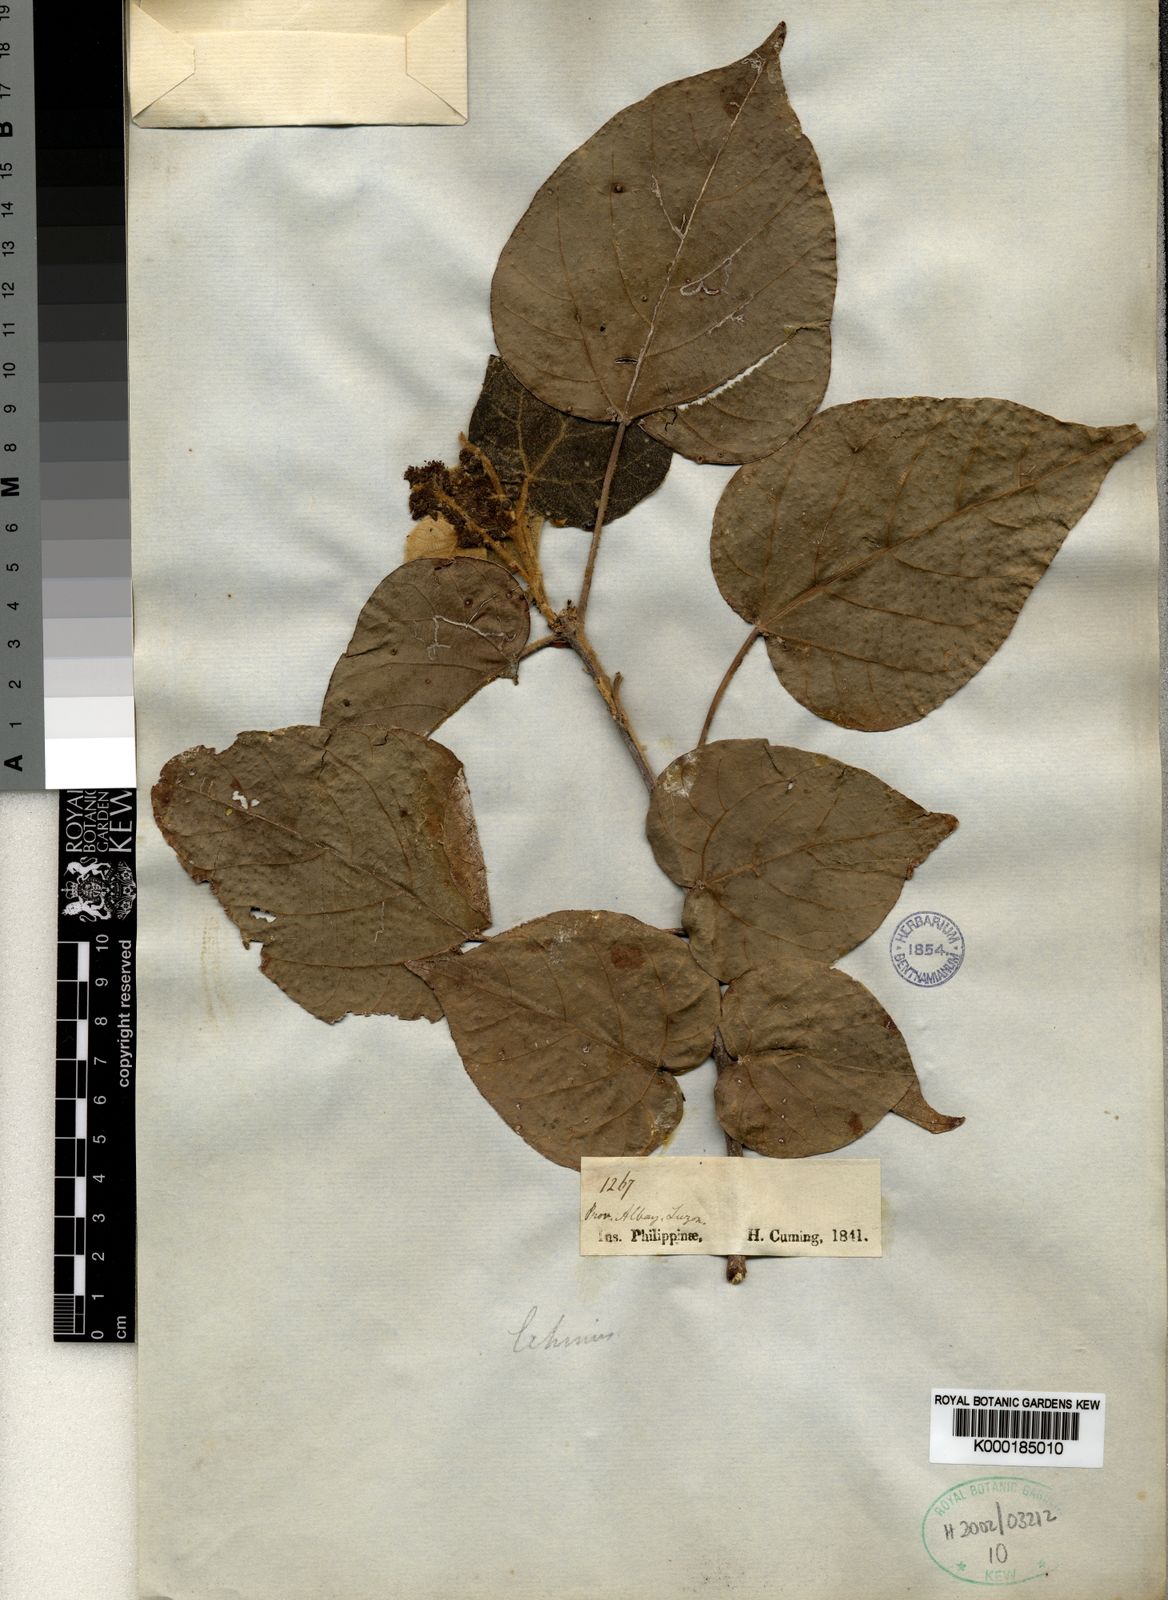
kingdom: Plantae
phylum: Tracheophyta
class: Magnoliopsida
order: Malpighiales
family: Euphorbiaceae
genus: Mallotus
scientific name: Mallotus nudiflorus
